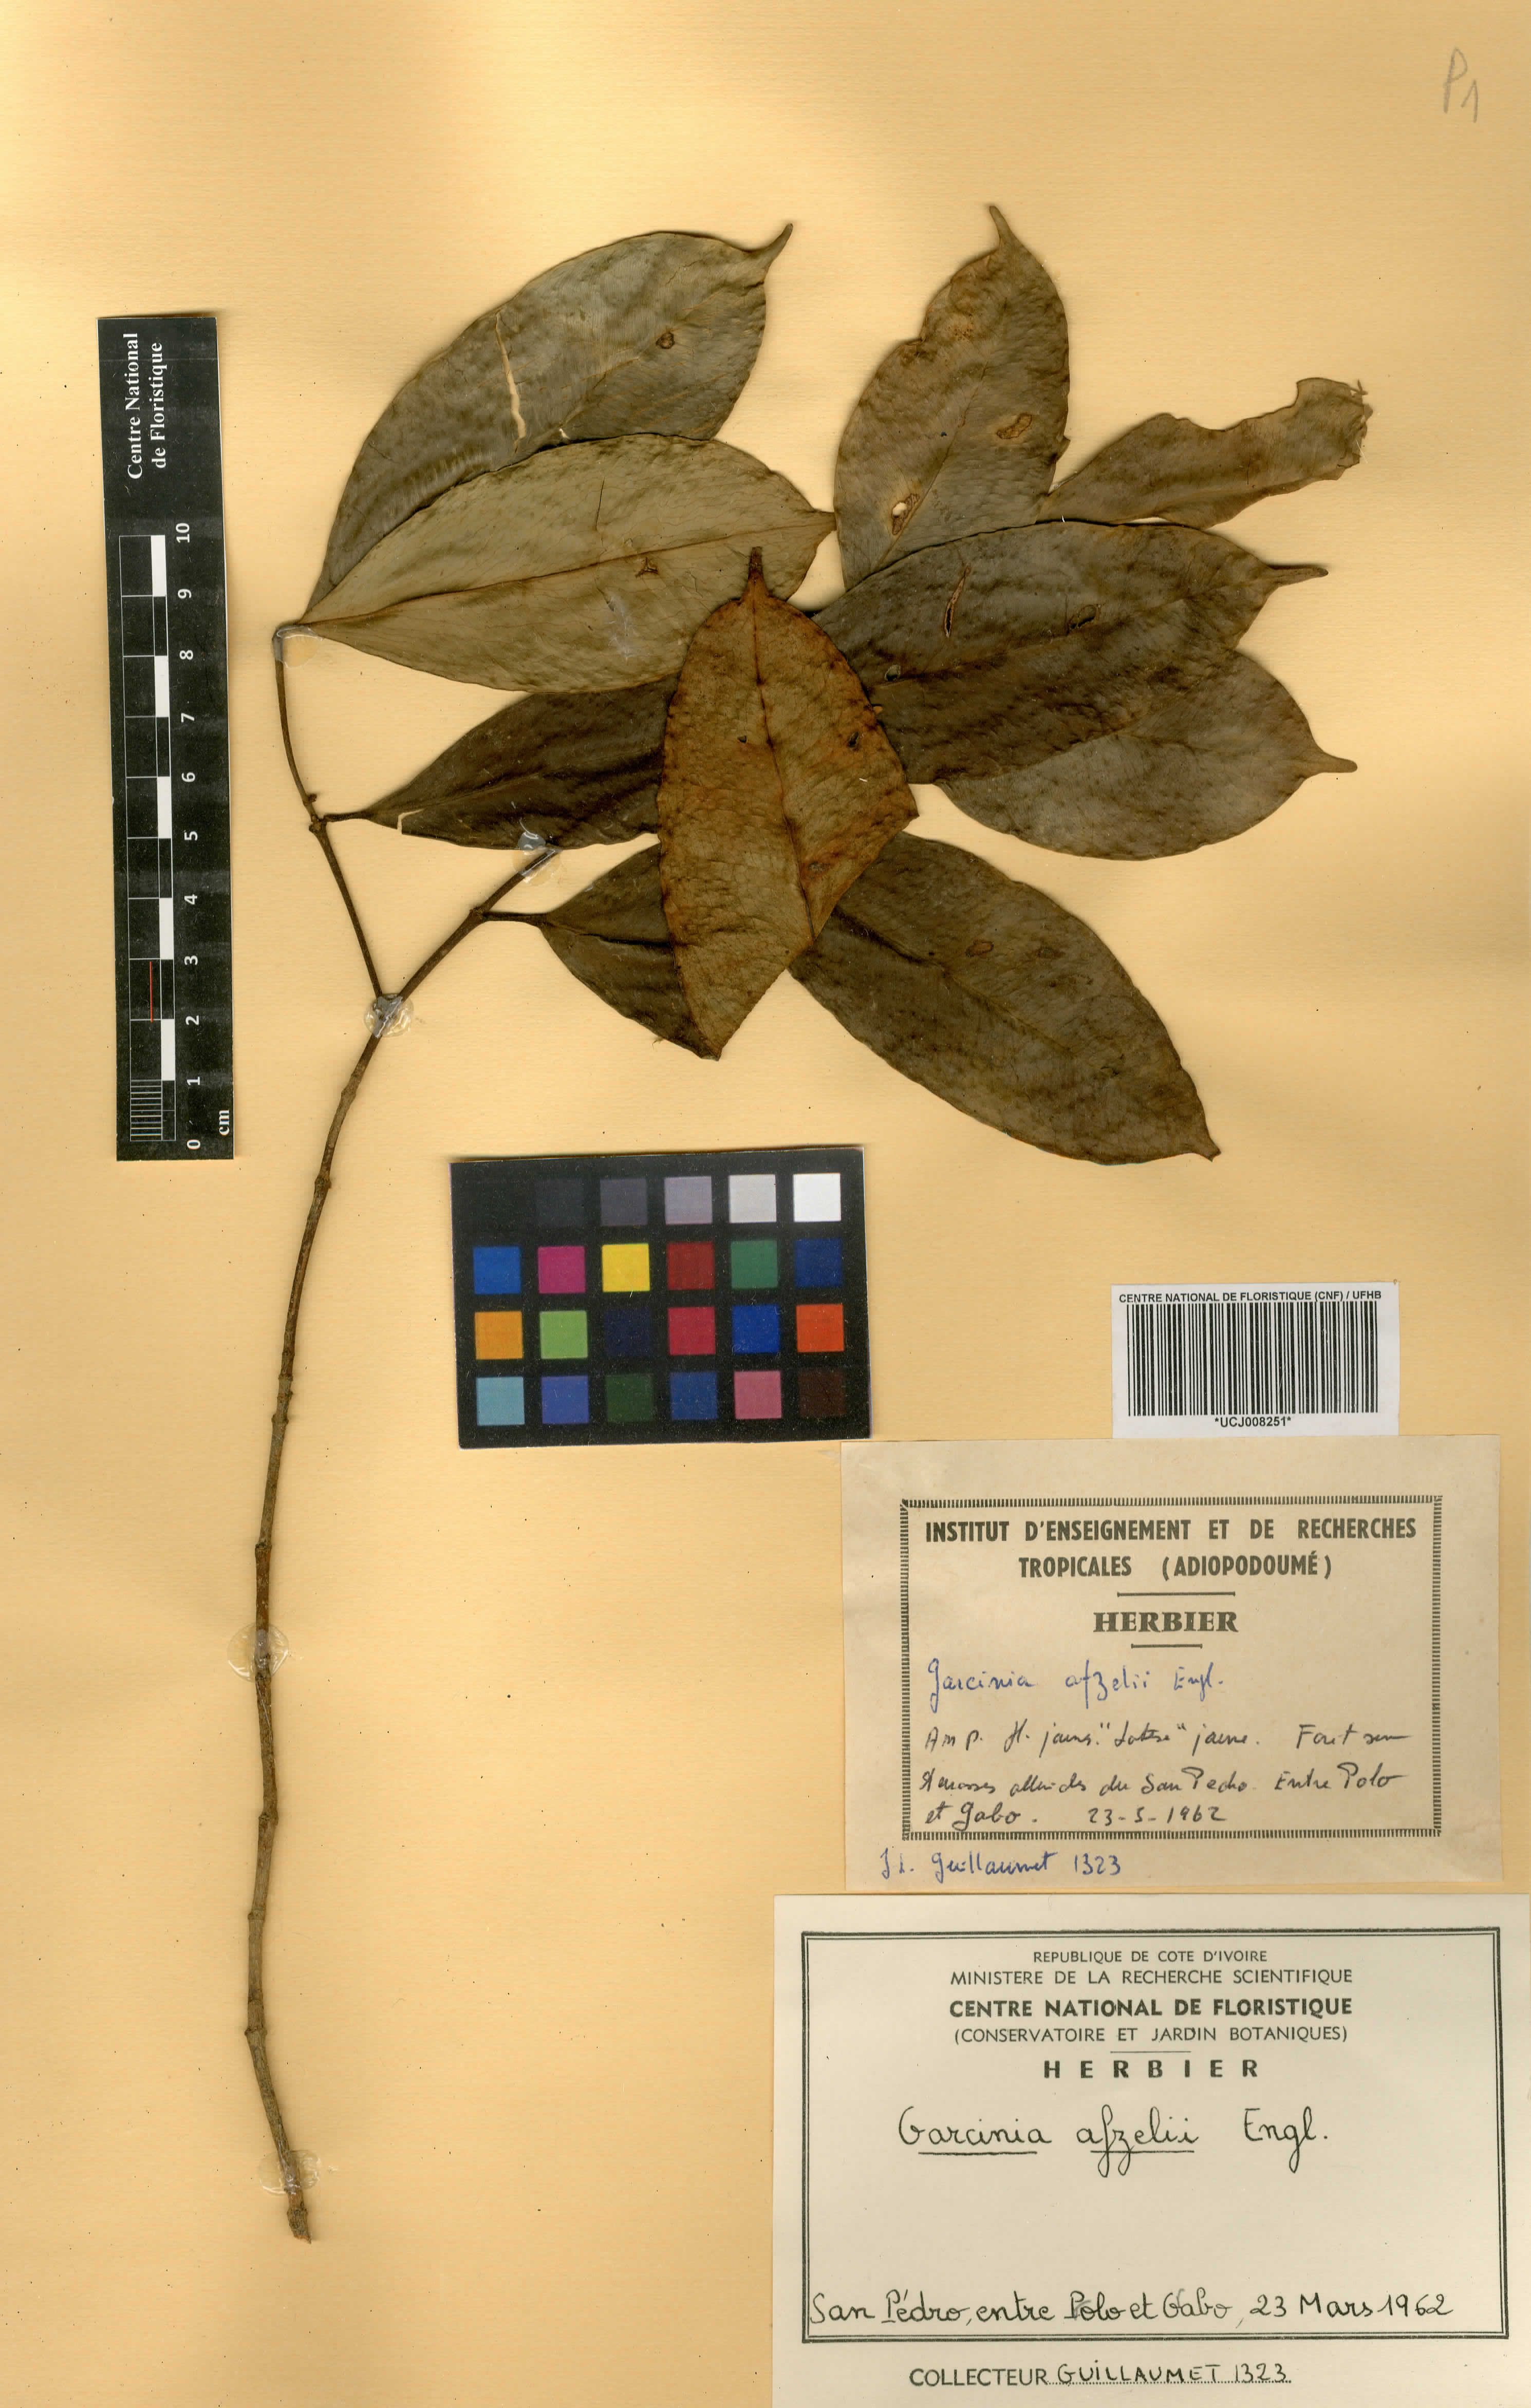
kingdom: Plantae
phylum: Tracheophyta
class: Magnoliopsida
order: Malpighiales
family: Clusiaceae
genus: Garcinia
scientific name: Garcinia afzelii
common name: Bitter-kola
